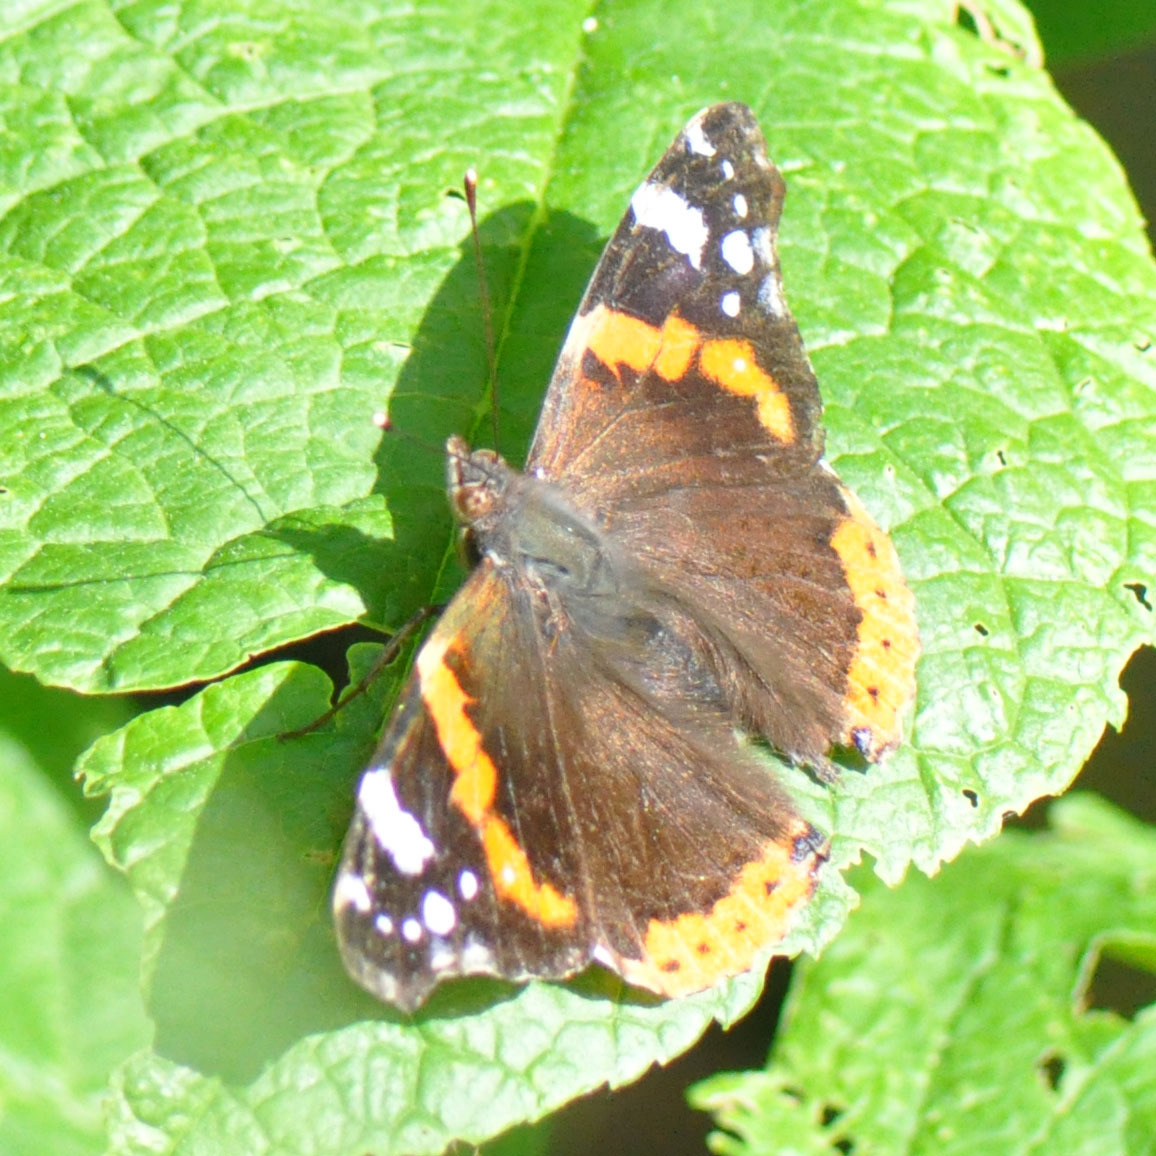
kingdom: Animalia
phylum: Arthropoda
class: Insecta
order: Lepidoptera
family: Nymphalidae
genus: Vanessa
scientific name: Vanessa atalanta
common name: Admiral
